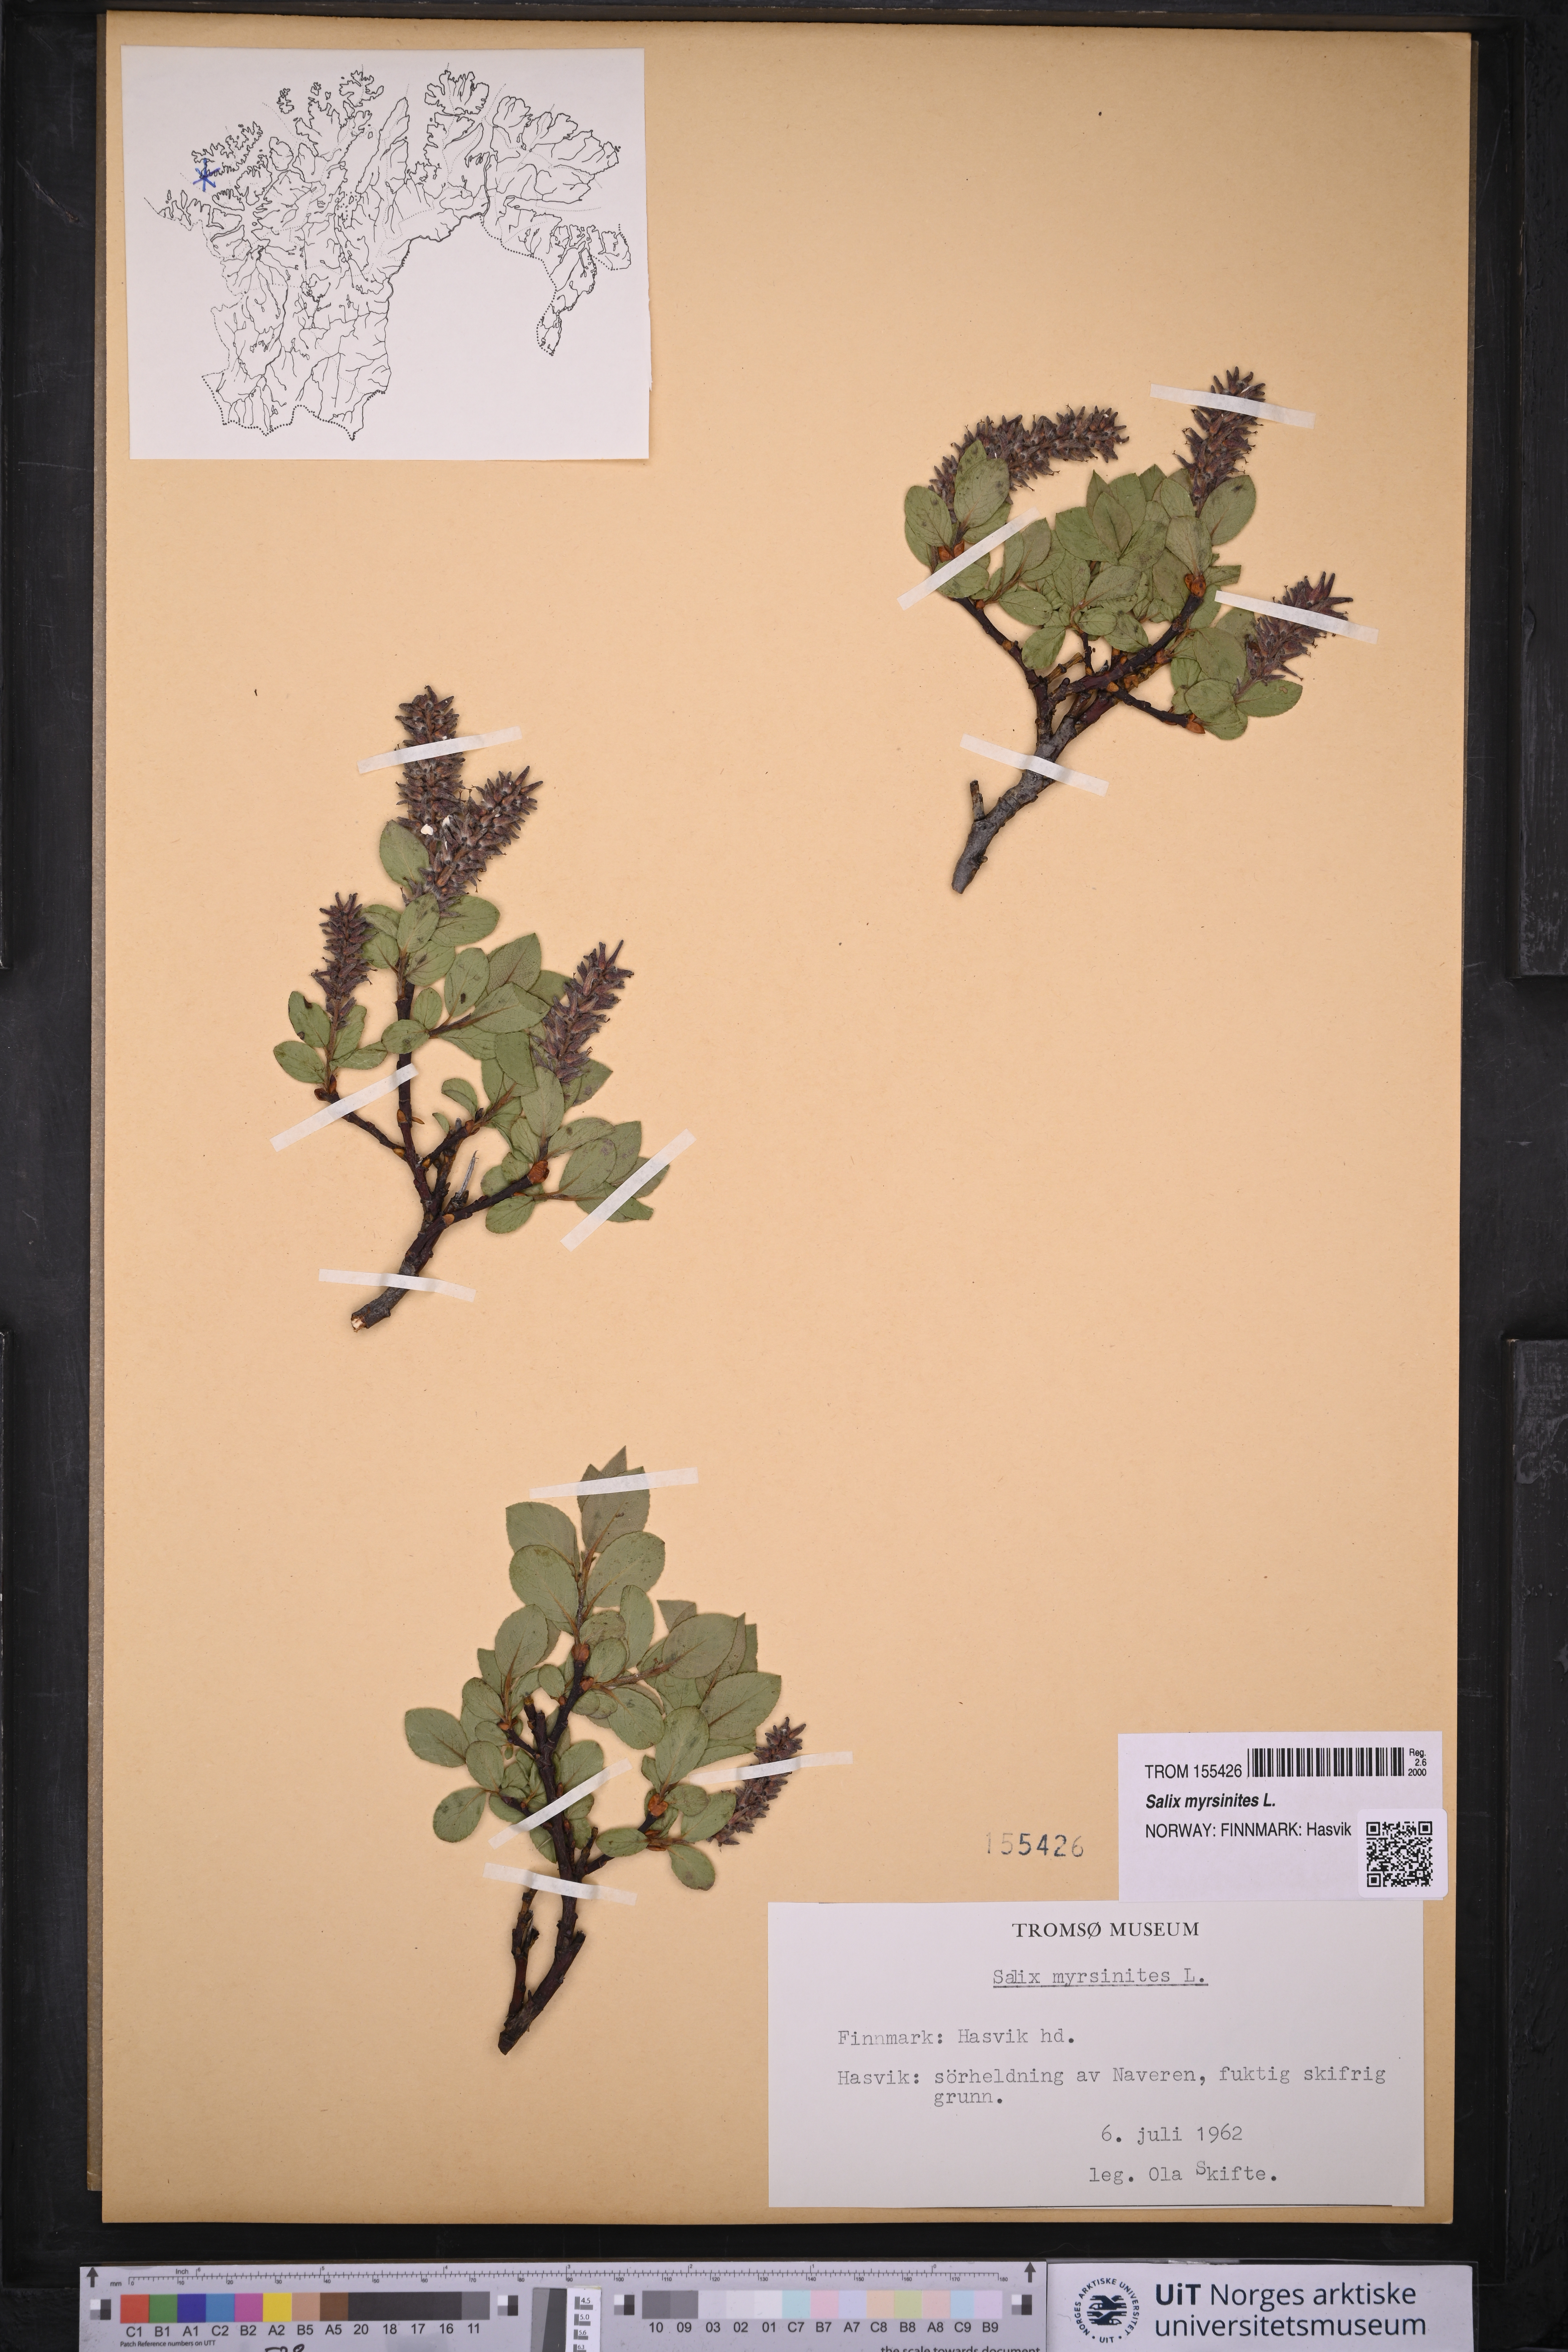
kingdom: Plantae
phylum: Tracheophyta
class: Magnoliopsida
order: Malpighiales
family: Salicaceae
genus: Salix
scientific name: Salix myrsinites
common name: Myrtle willow
